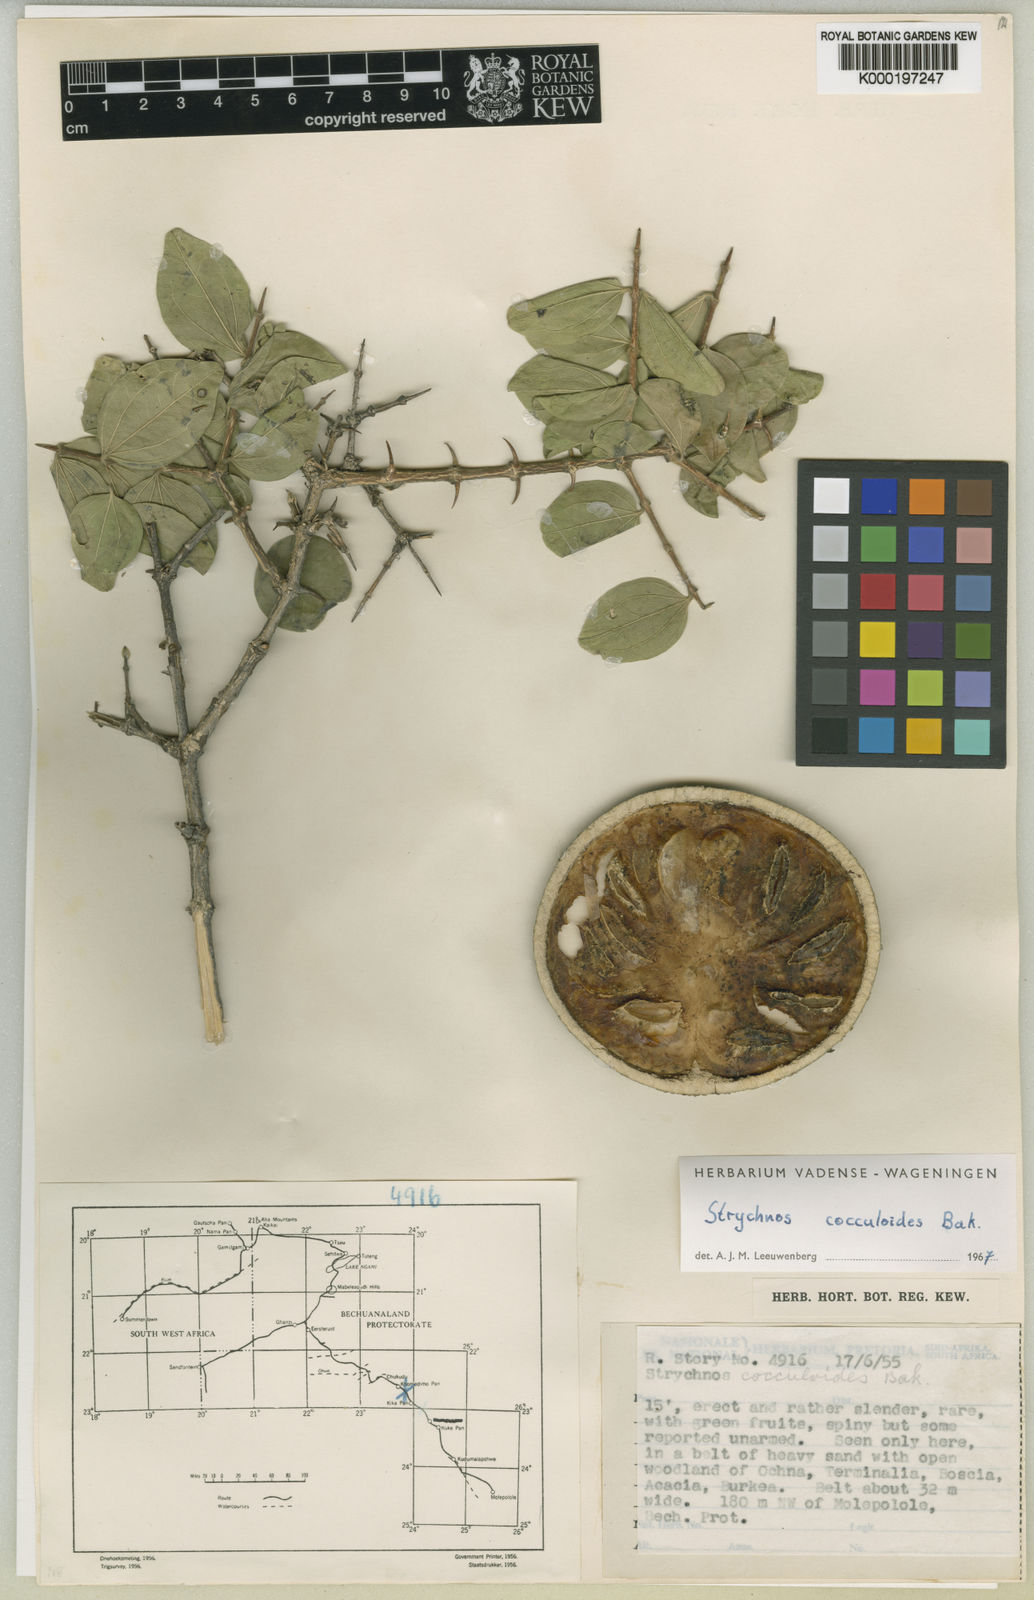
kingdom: Plantae
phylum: Tracheophyta
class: Magnoliopsida
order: Gentianales
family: Loganiaceae
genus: Strychnos
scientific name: Strychnos cocculoides
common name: Corky-bark monkey-orange
